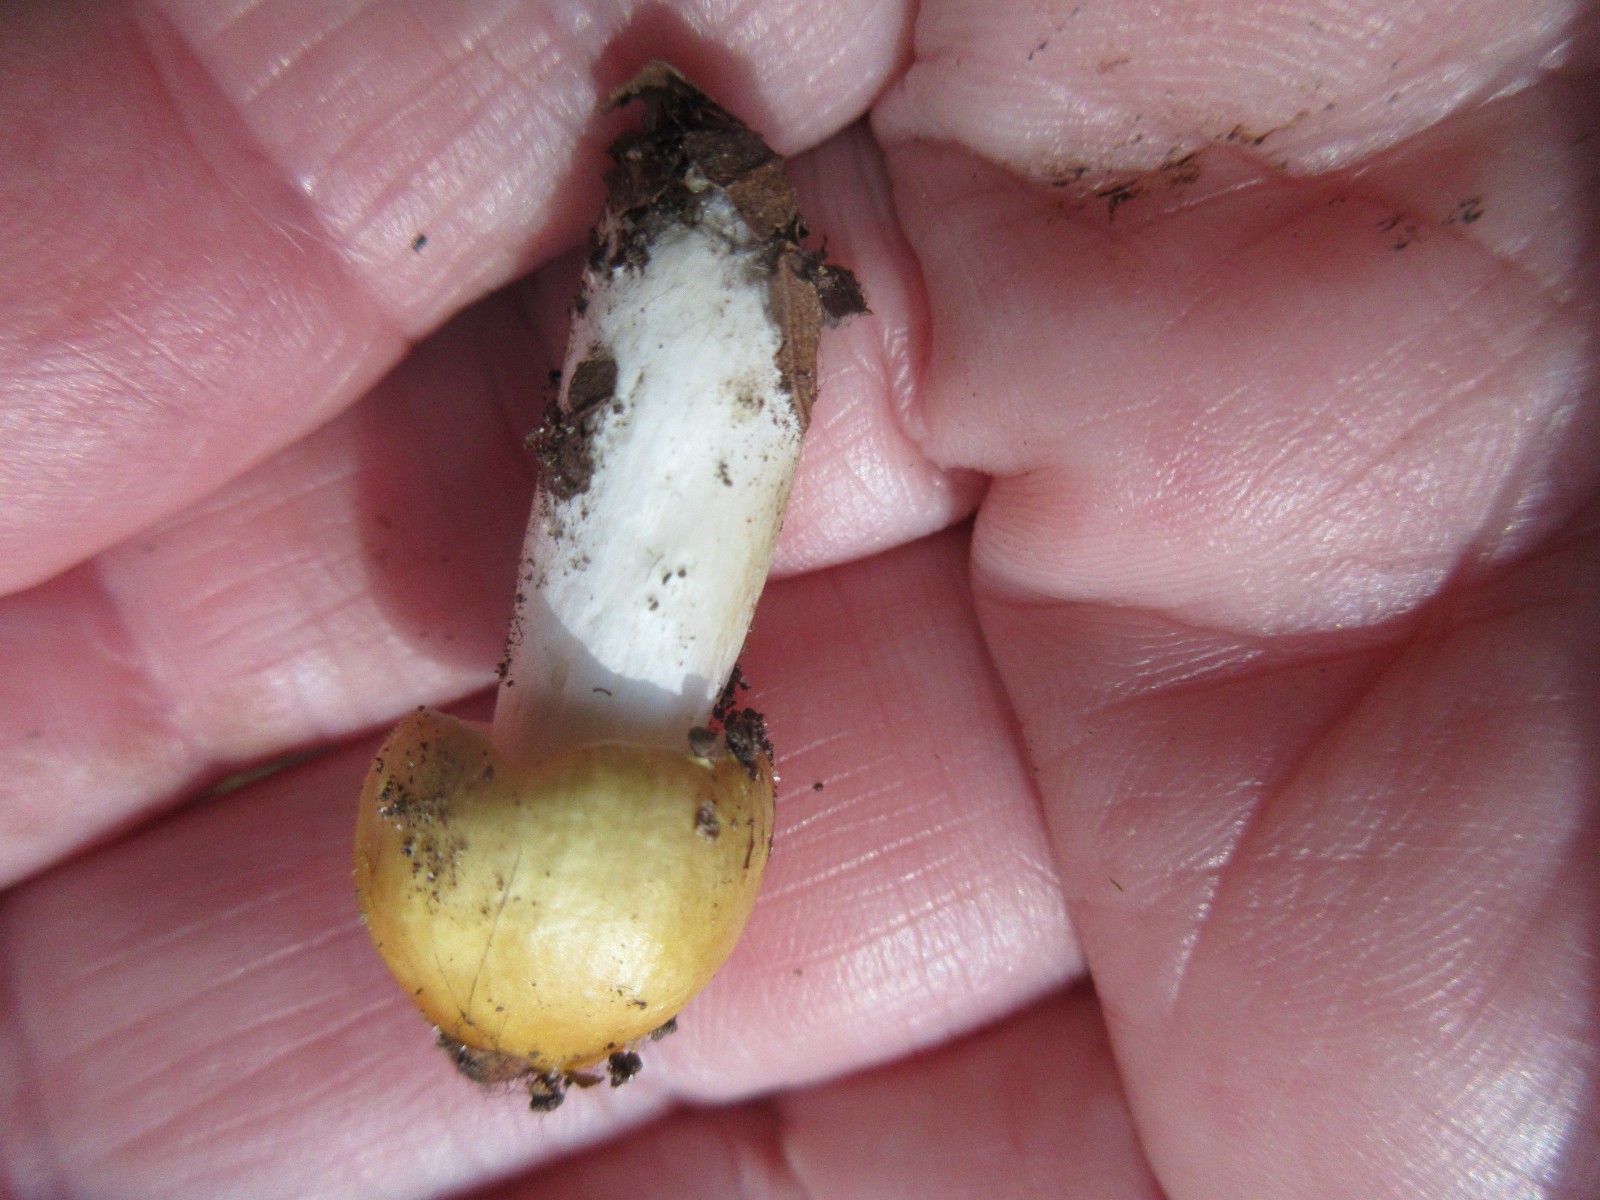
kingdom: Fungi
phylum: Basidiomycota
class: Agaricomycetes
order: Russulales
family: Russulaceae
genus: Russula
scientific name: Russula ochroleuca
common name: okkergul skørhat
